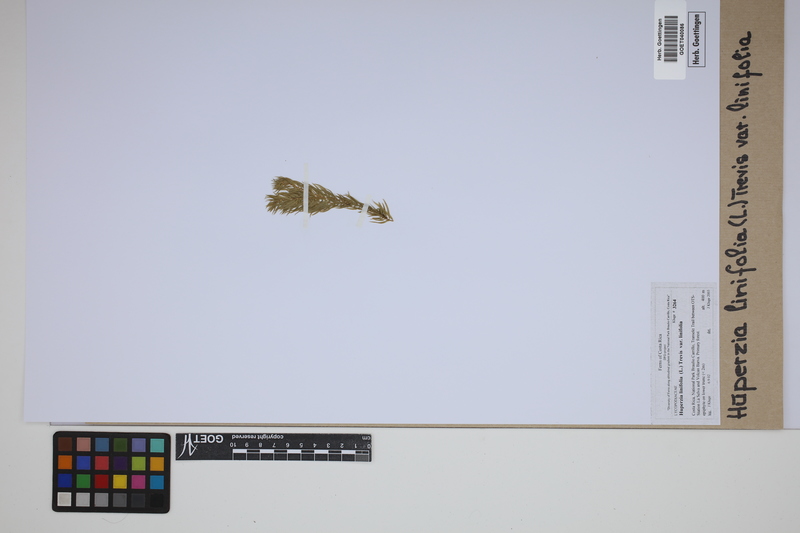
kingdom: Plantae
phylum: Tracheophyta
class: Lycopodiopsida
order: Lycopodiales
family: Lycopodiaceae
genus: Phlegmariurus
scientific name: Phlegmariurus linifolius
